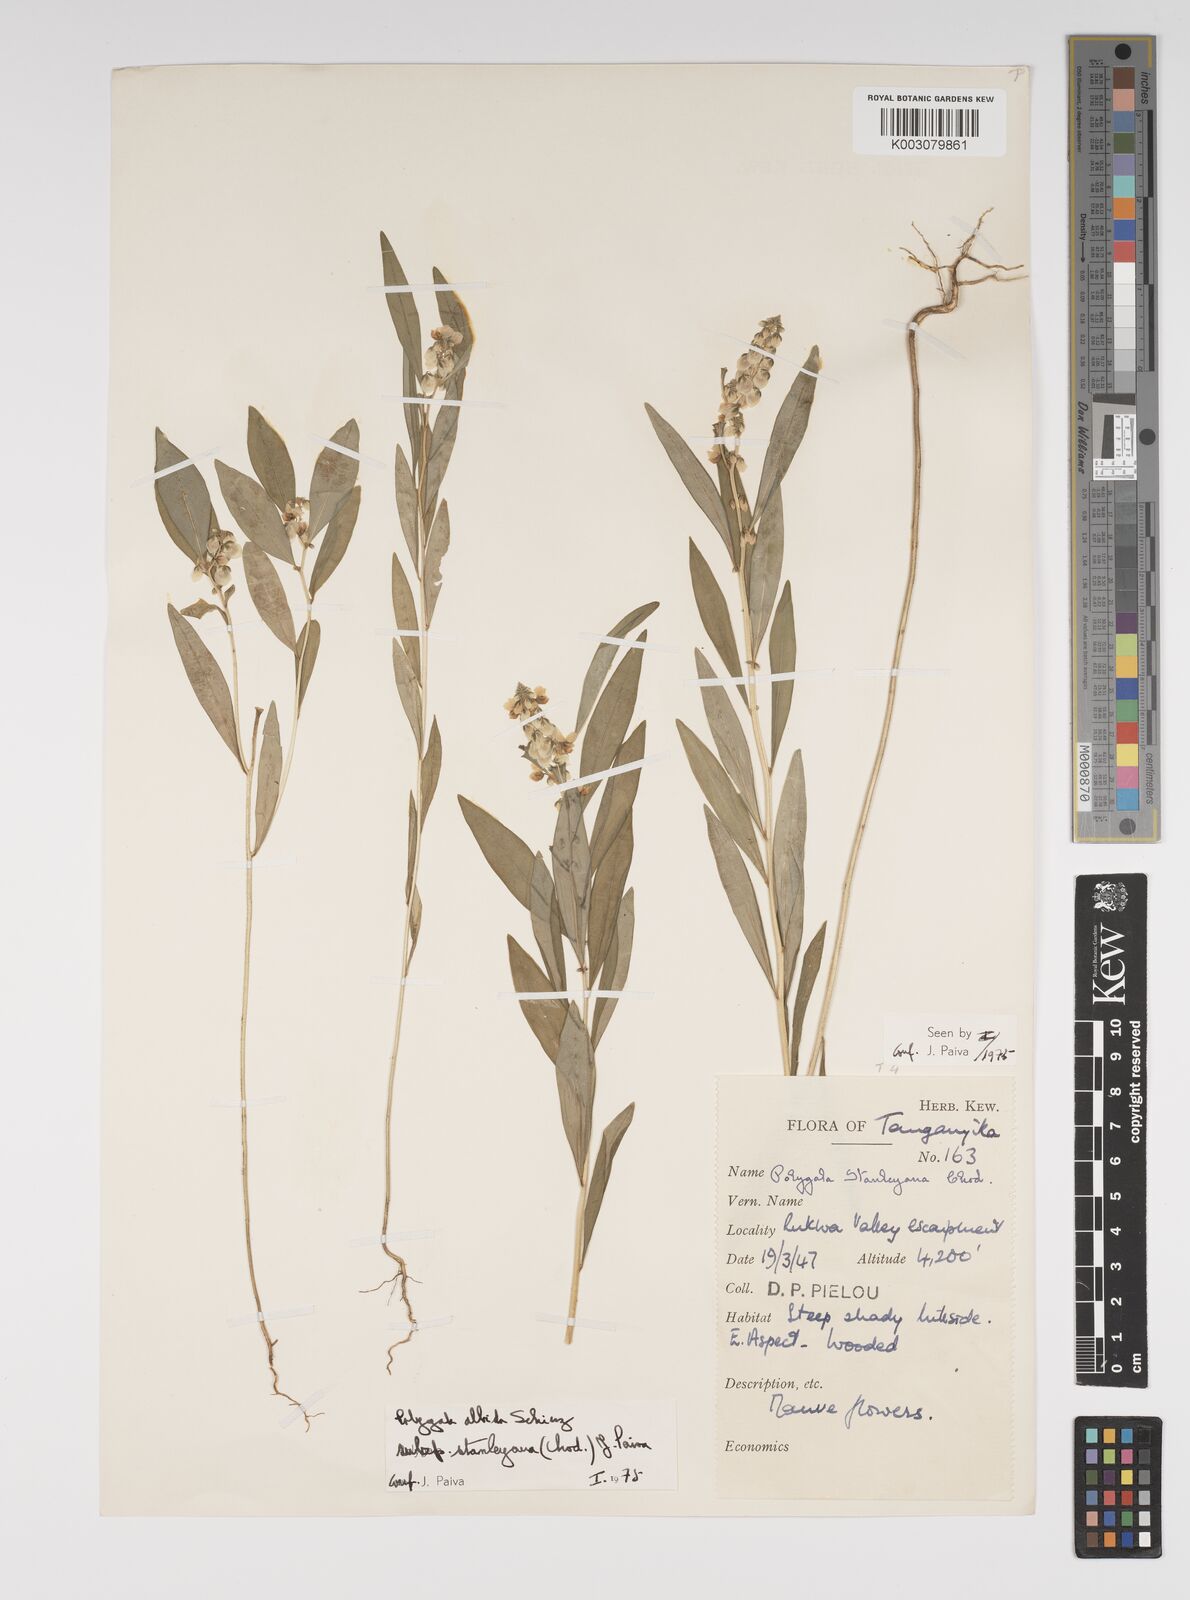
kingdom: Plantae
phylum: Tracheophyta
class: Magnoliopsida
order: Fabales
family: Polygalaceae
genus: Polygala
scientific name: Polygala albida
